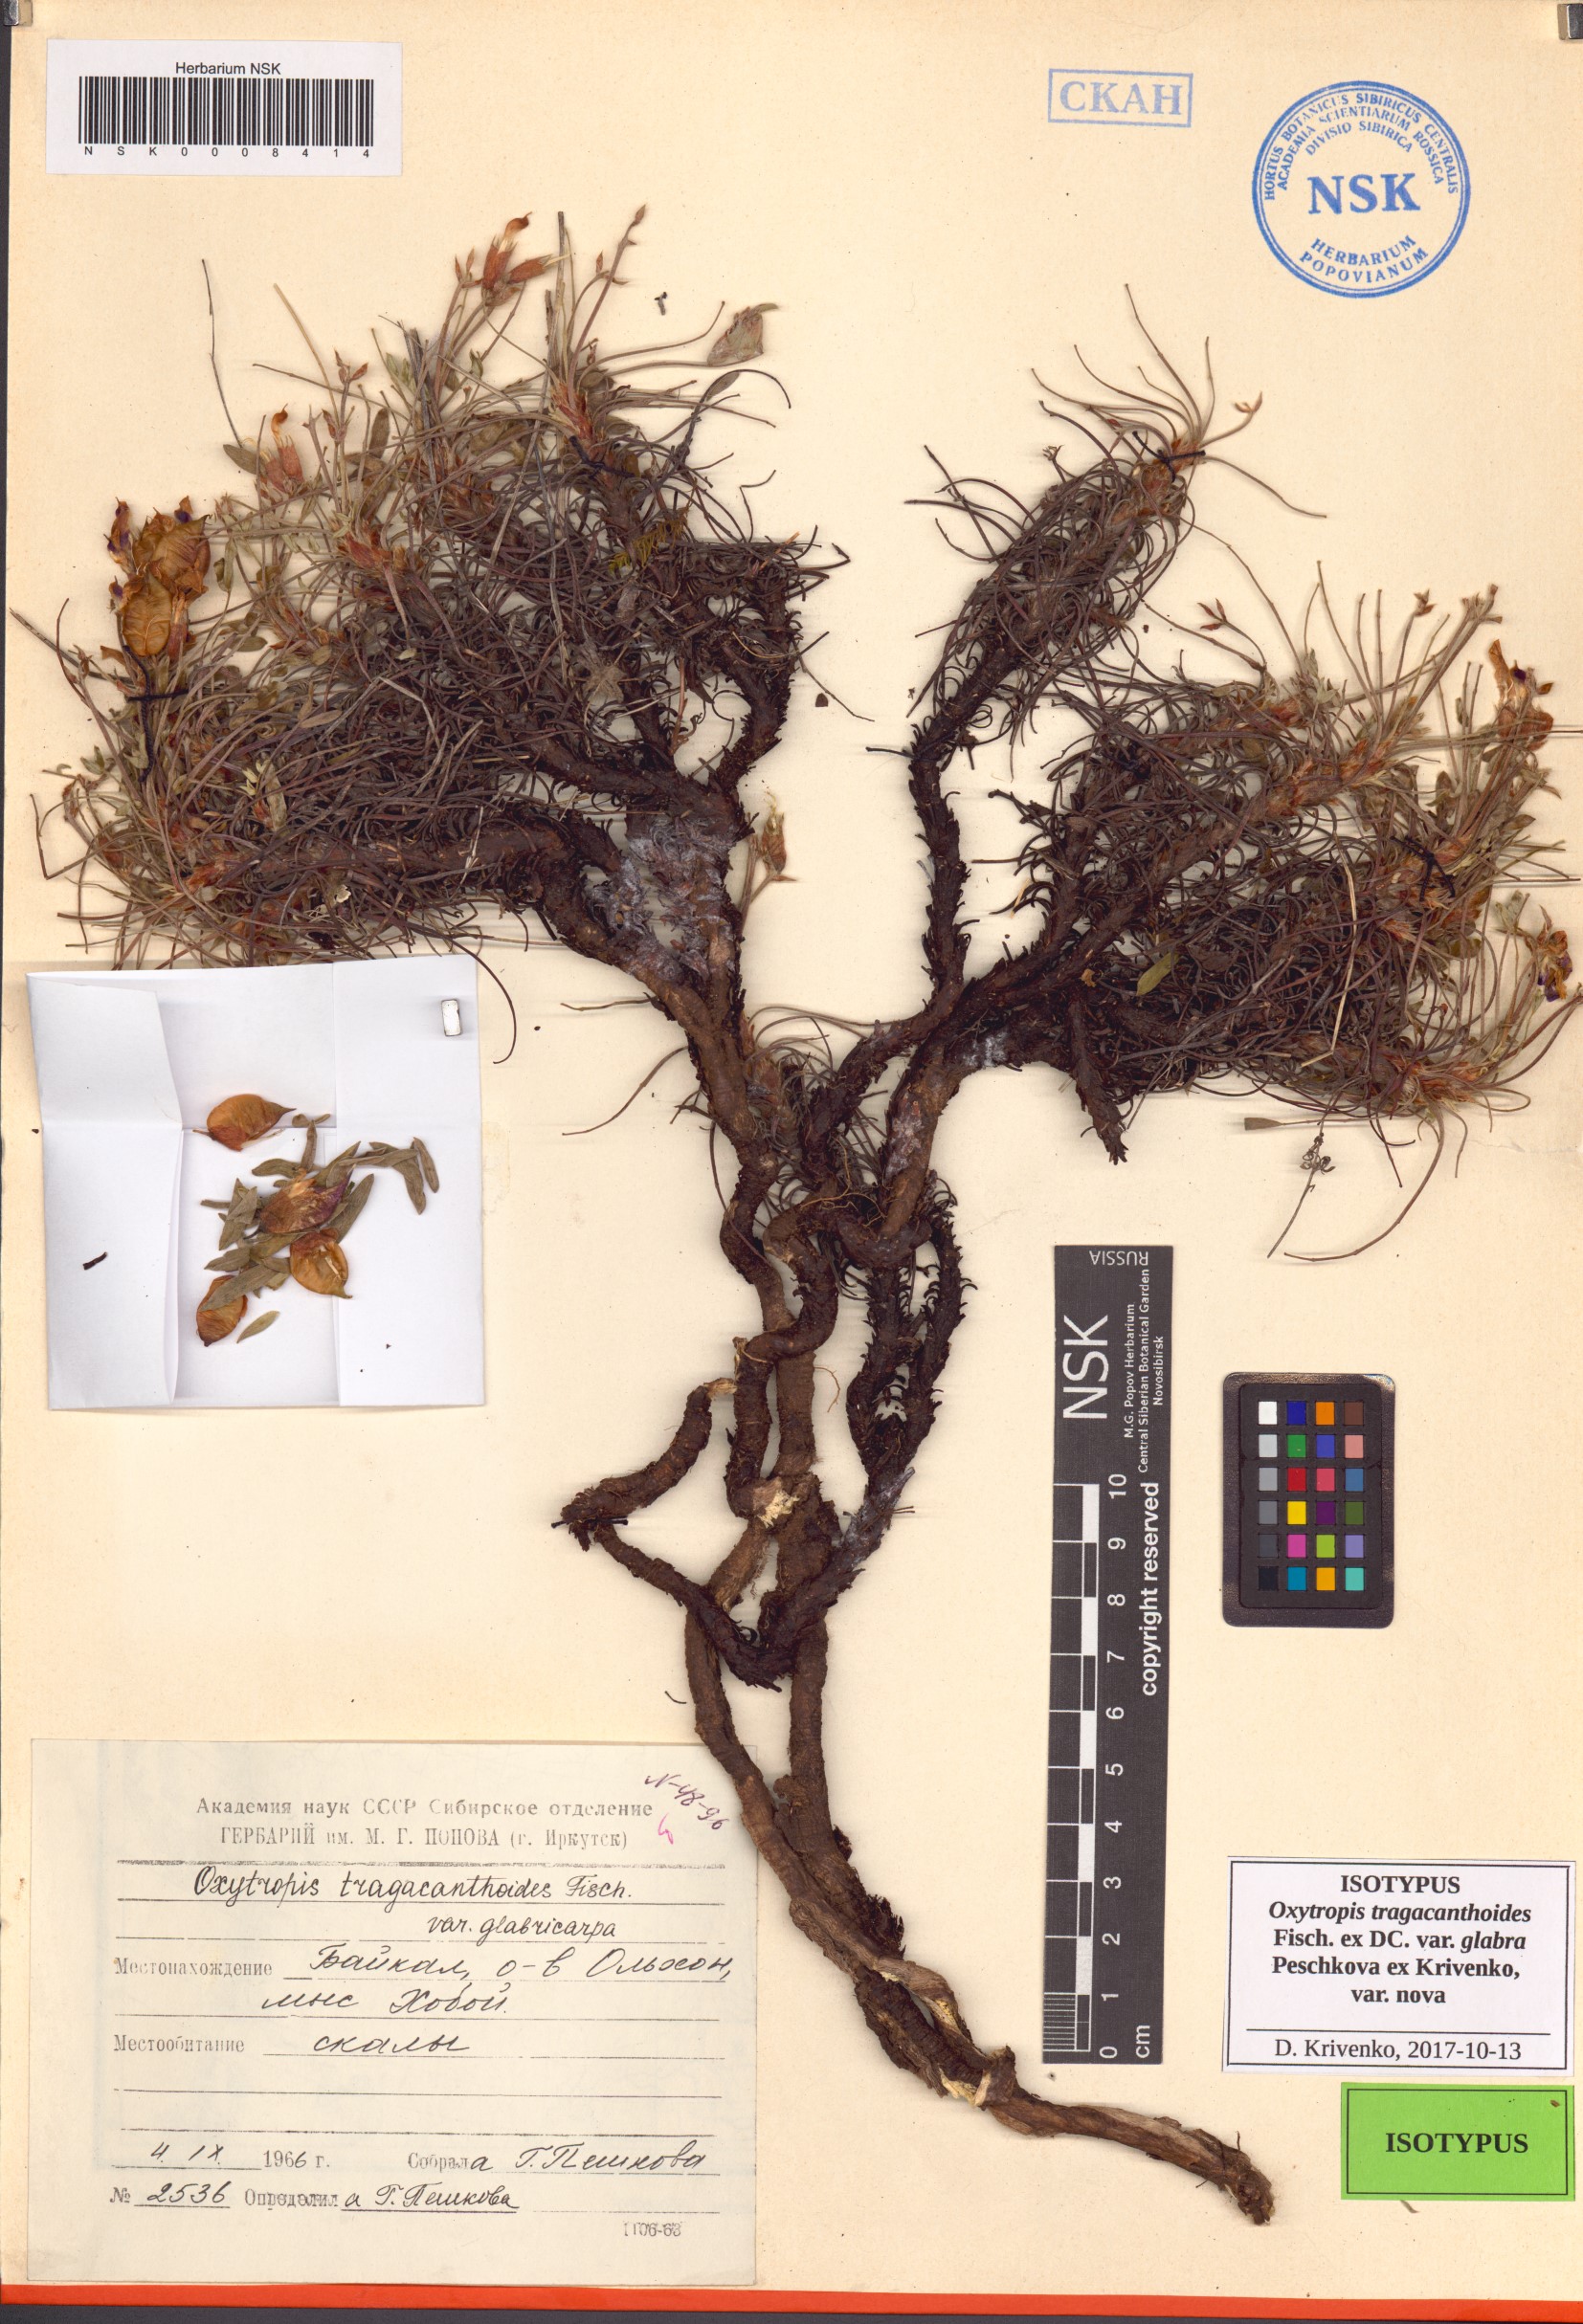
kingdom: Plantae
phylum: Tracheophyta
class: Magnoliopsida
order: Fabales
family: Fabaceae
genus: Oxytropis
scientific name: Oxytropis tragacanthoides
